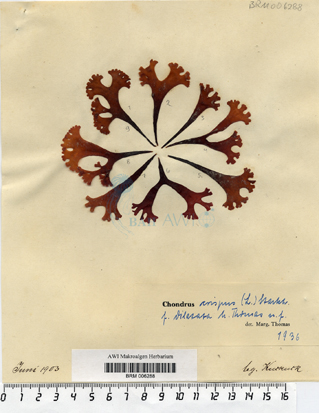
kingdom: Plantae
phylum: Rhodophyta
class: Florideophyceae
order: Gigartinales
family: Gigartinaceae
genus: Chondrus
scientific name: Chondrus crispus
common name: Carrageen
